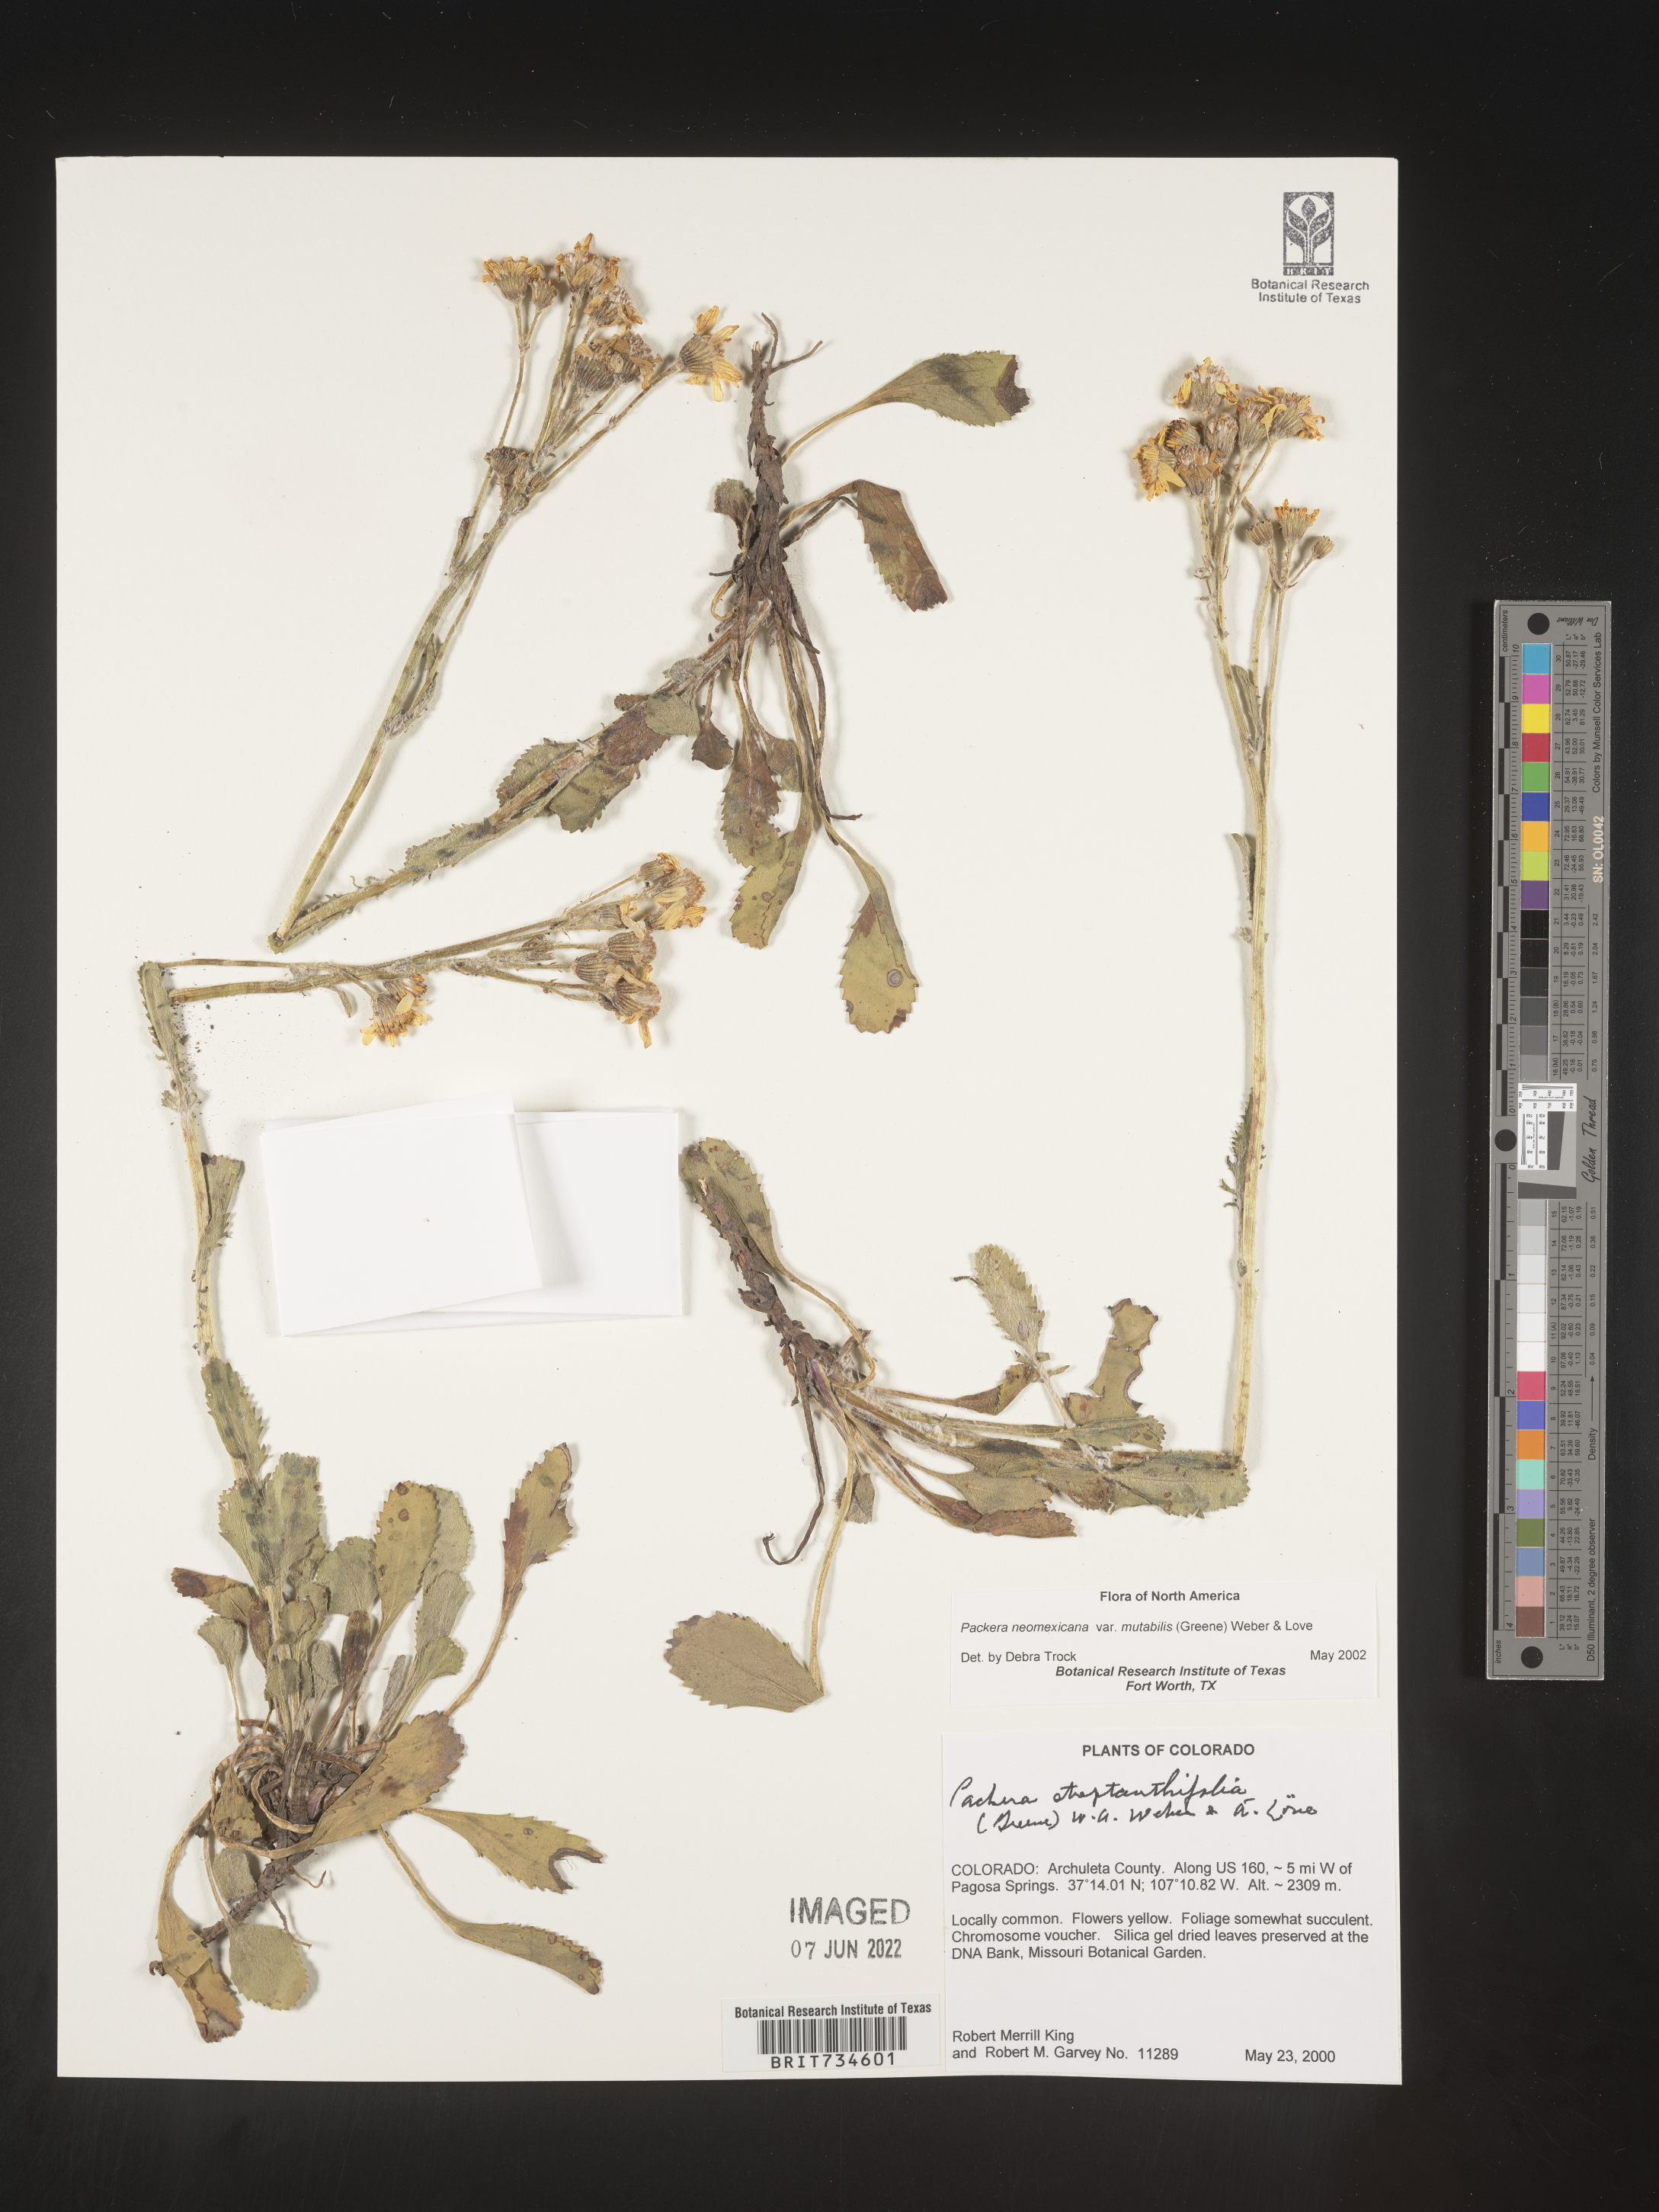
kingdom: Plantae
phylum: Tracheophyta
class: Magnoliopsida
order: Asterales
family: Asteraceae
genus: Packera
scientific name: Packera neomexicana
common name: New mexico butterweed
